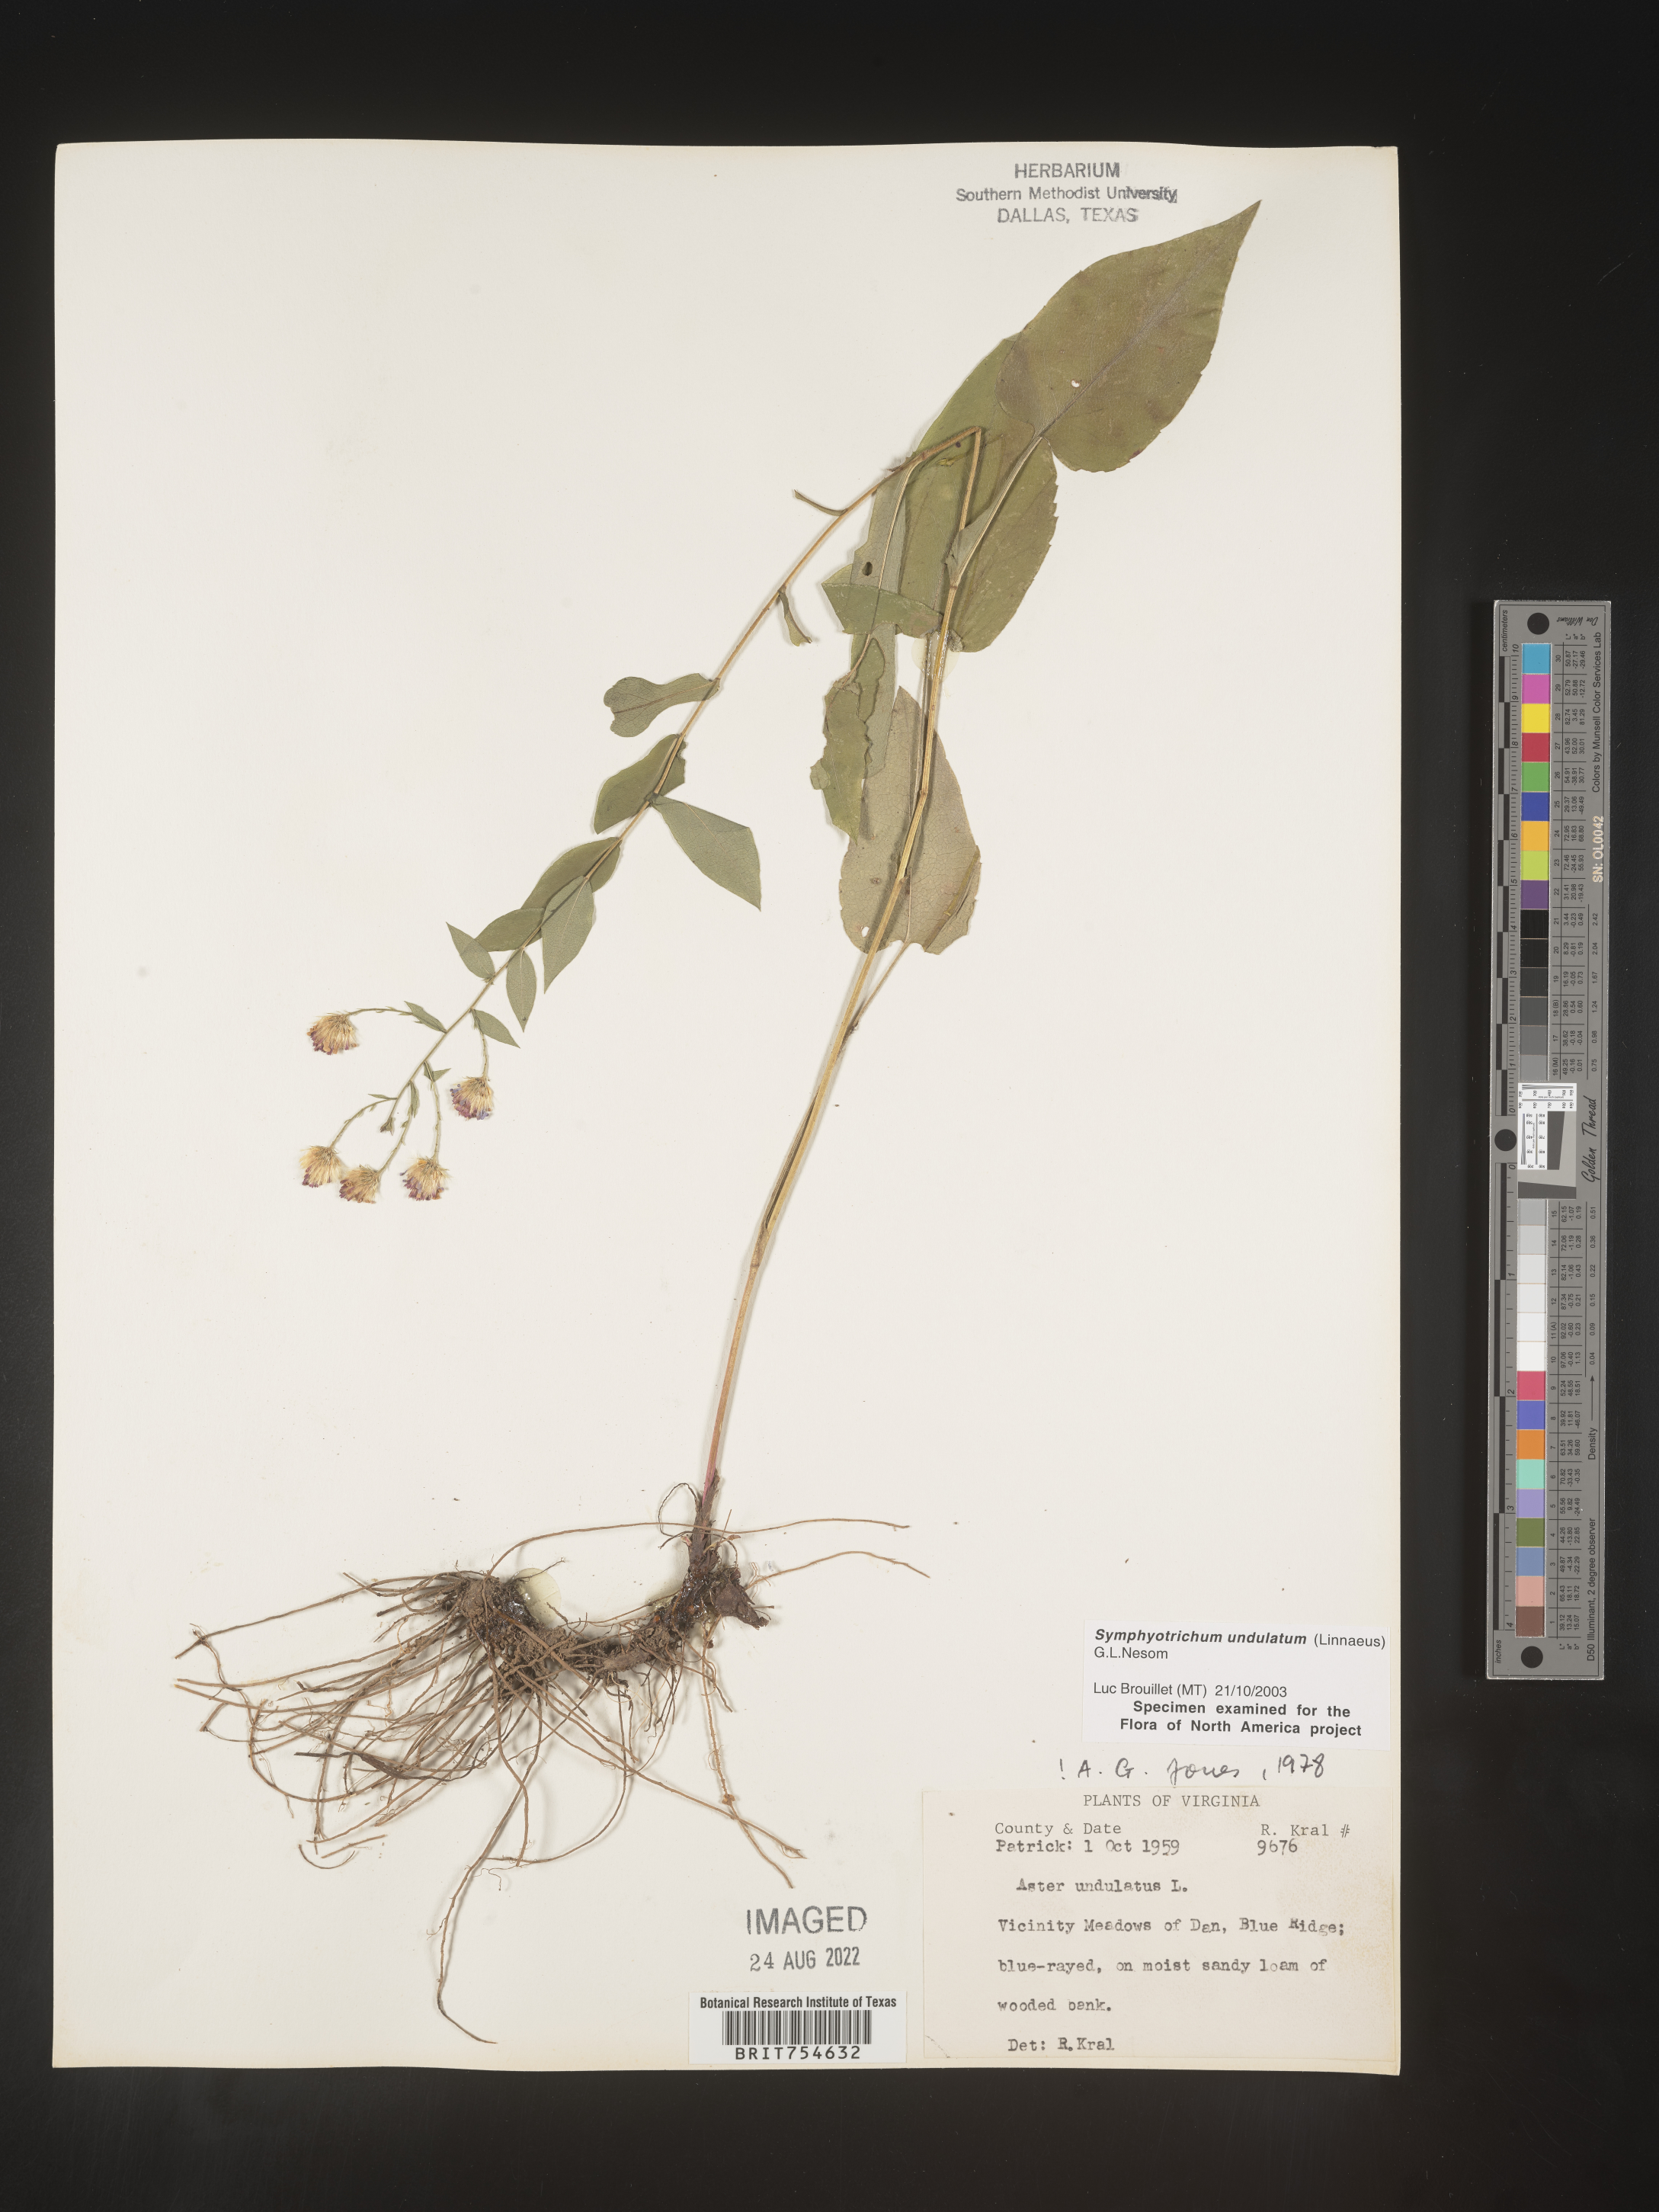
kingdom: Plantae
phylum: Tracheophyta
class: Magnoliopsida
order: Asterales
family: Asteraceae
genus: Symphyotrichum
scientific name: Symphyotrichum undulatum
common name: Clasping heart-leaf aster
